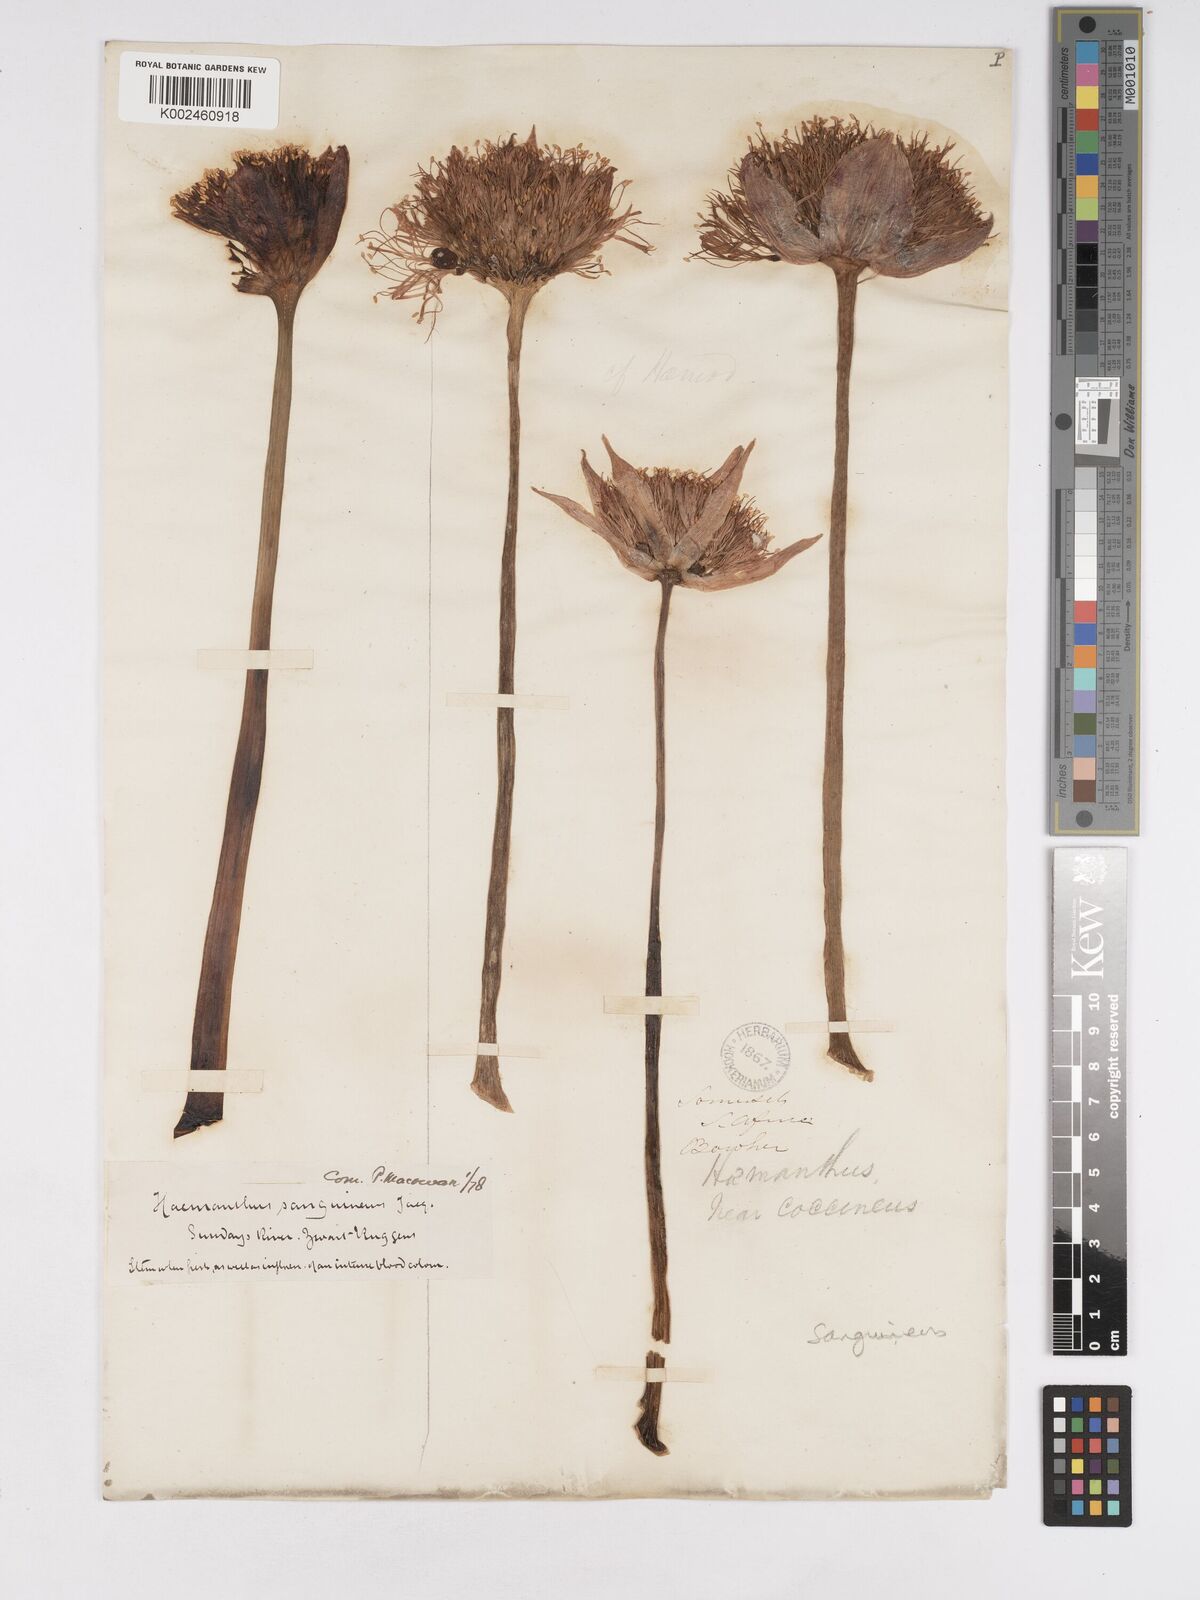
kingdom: Plantae
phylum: Tracheophyta
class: Liliopsida
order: Asparagales
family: Amaryllidaceae
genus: Haemanthus
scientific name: Haemanthus sanguineus
